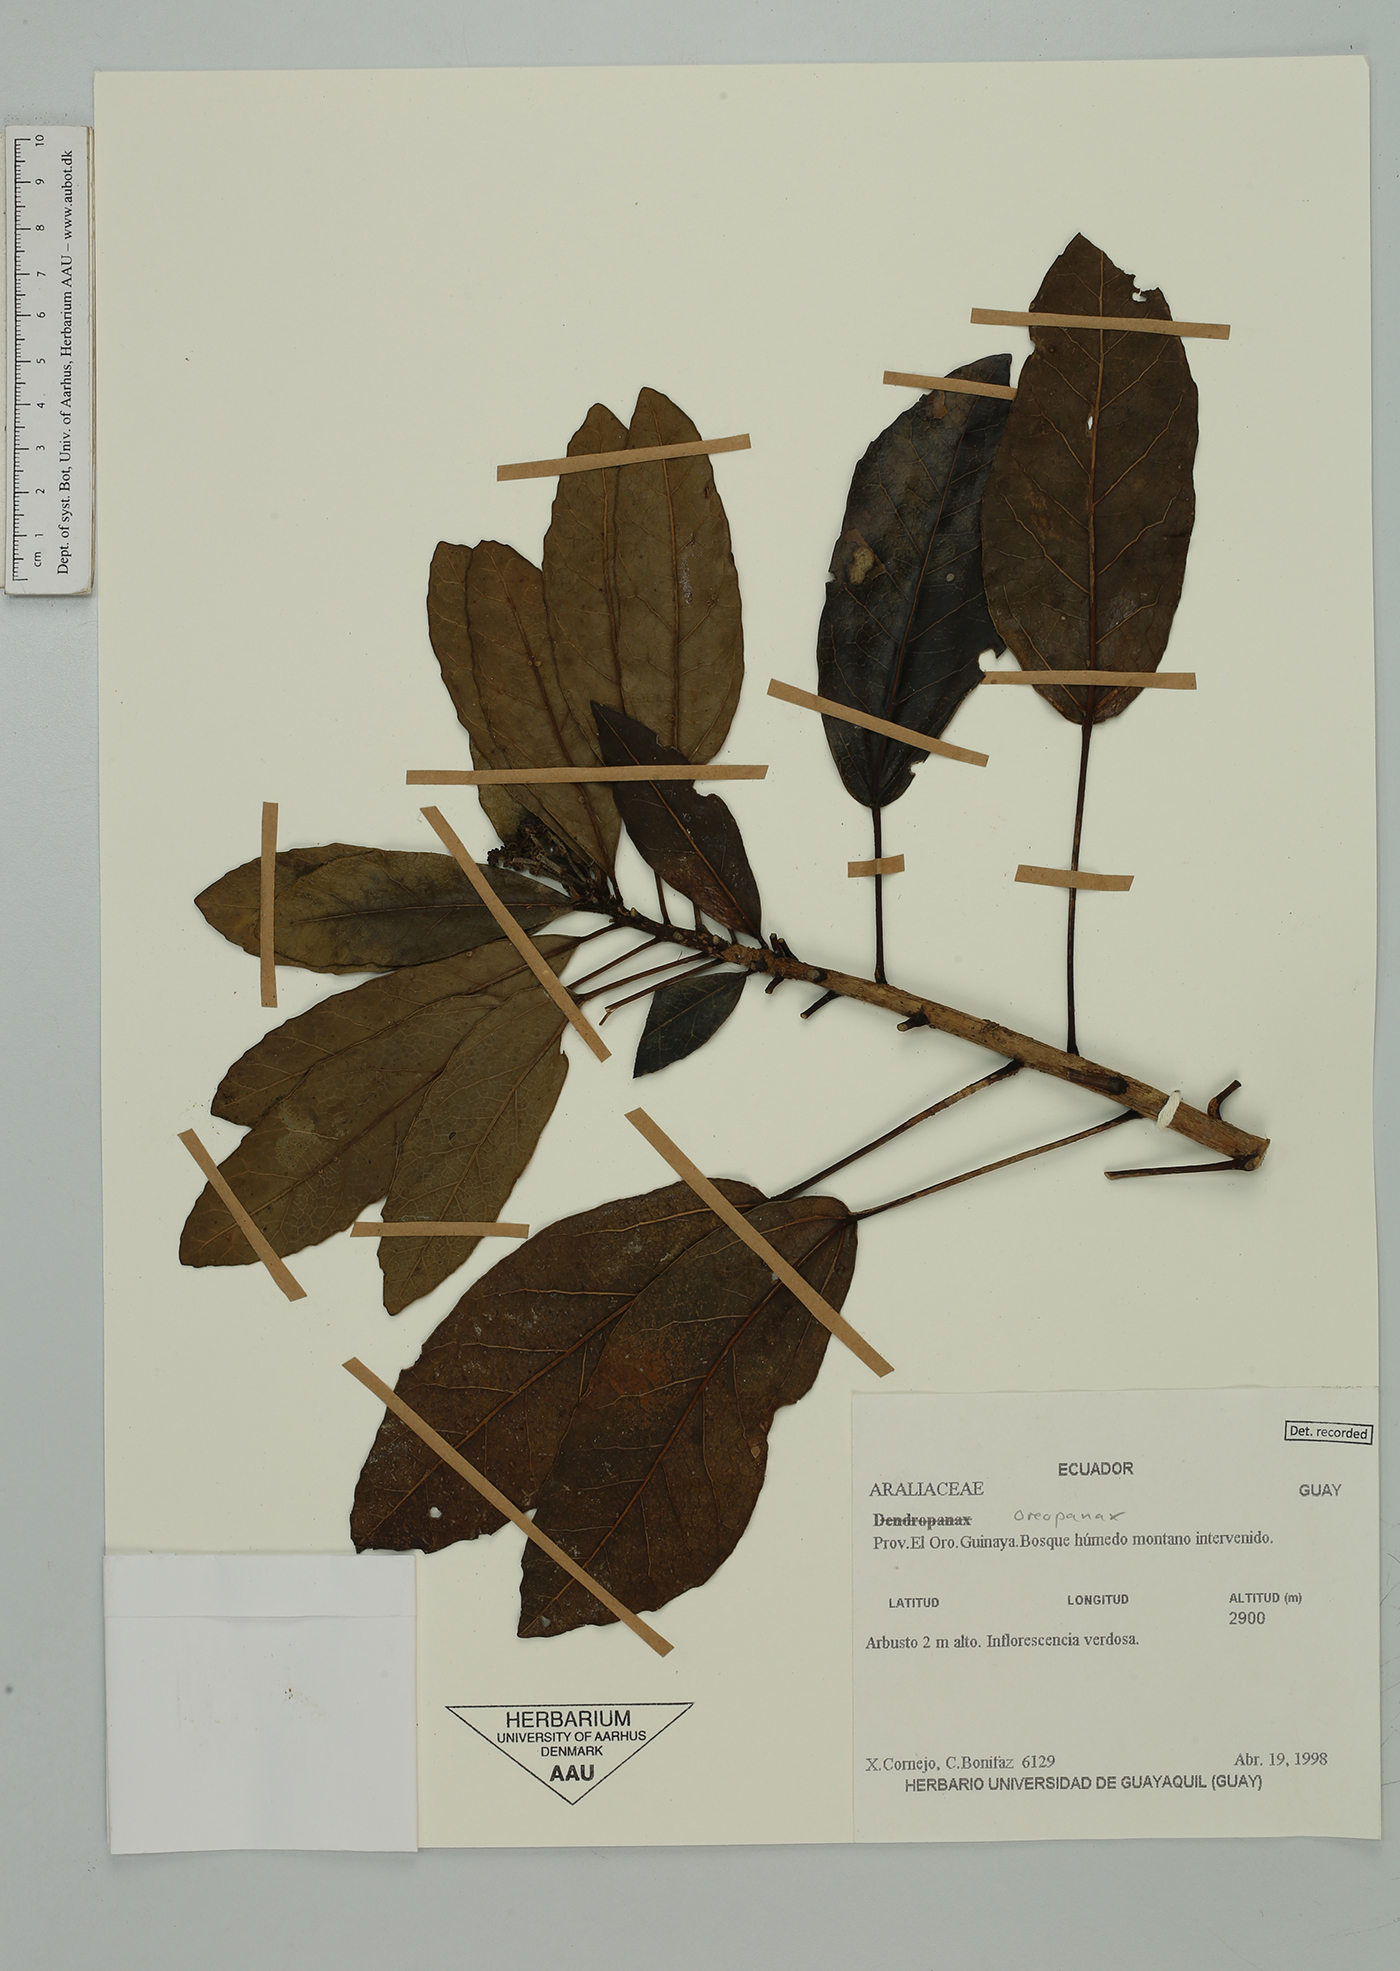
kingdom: Plantae
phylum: Tracheophyta
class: Magnoliopsida
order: Apiales
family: Araliaceae
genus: Oreopanax
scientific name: Oreopanax
